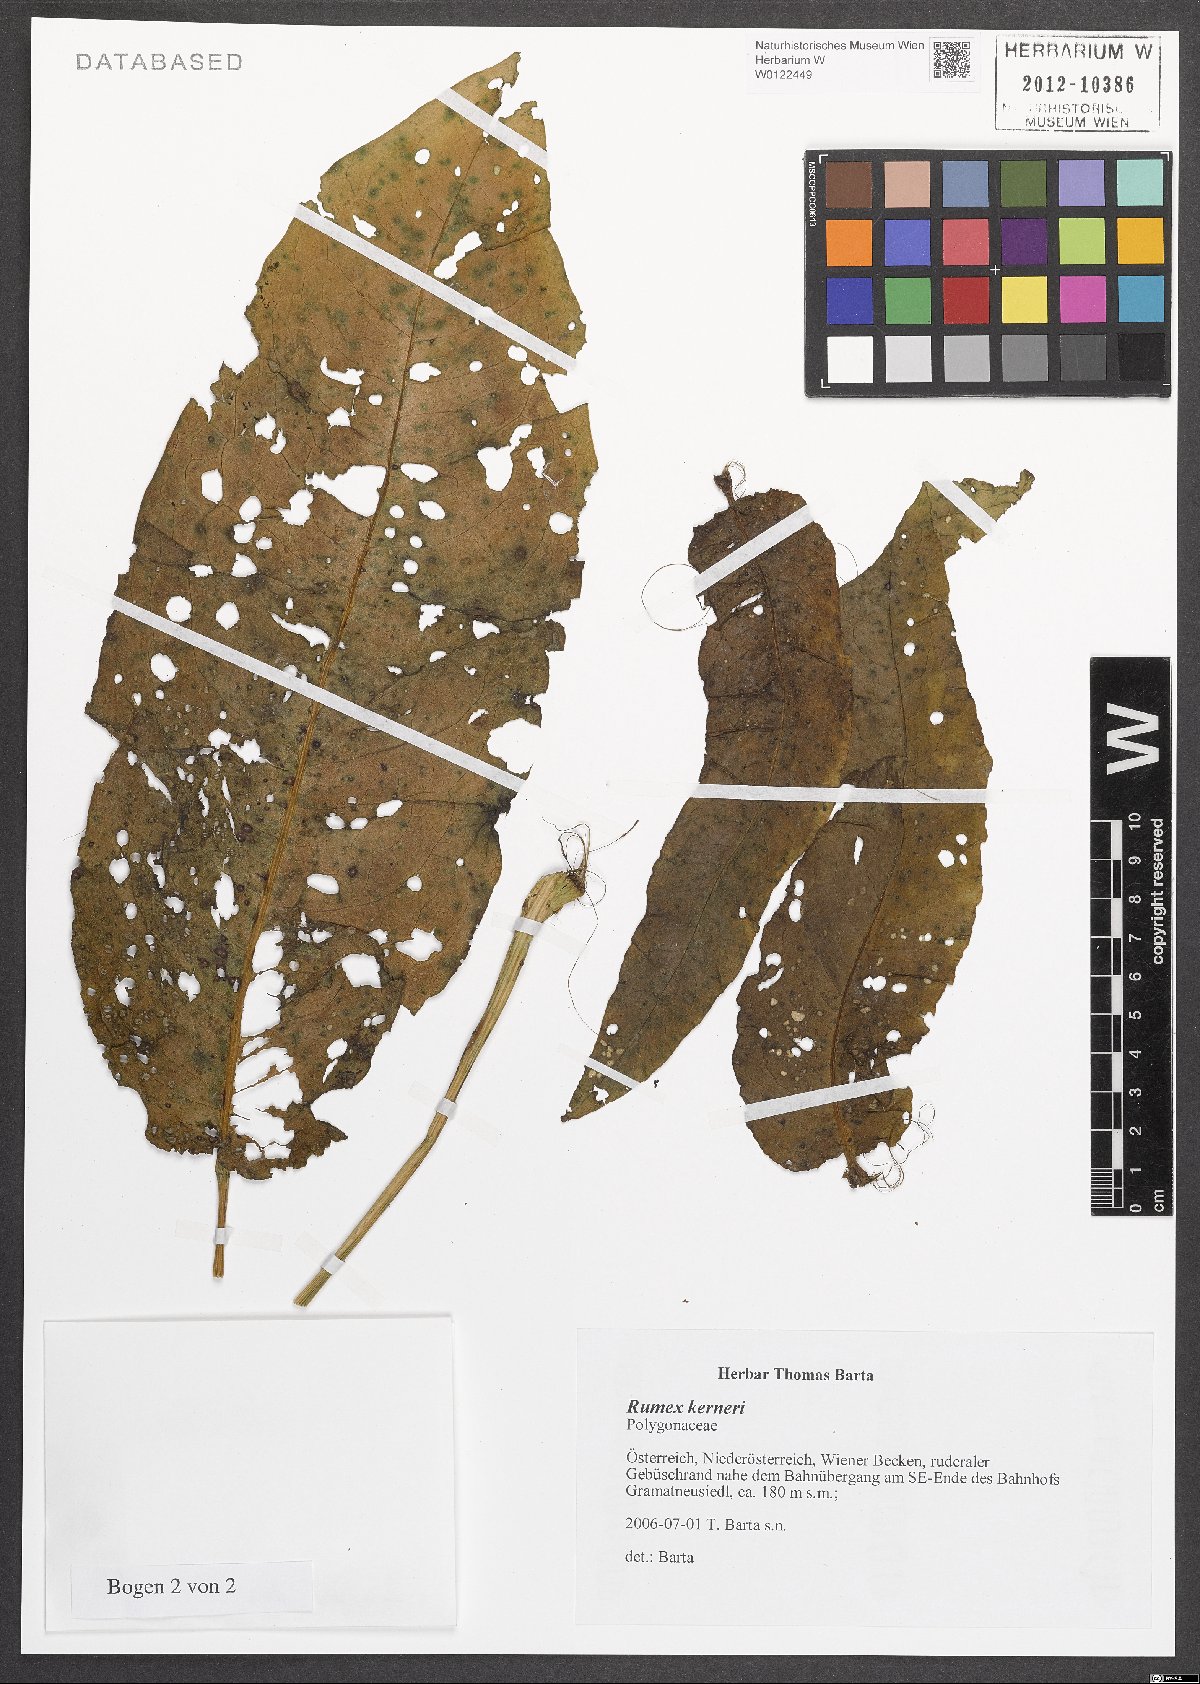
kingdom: Plantae
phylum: Tracheophyta
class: Magnoliopsida
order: Caryophyllales
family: Polygonaceae
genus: Rumex
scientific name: Rumex kerneri
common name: Kerner's dock
